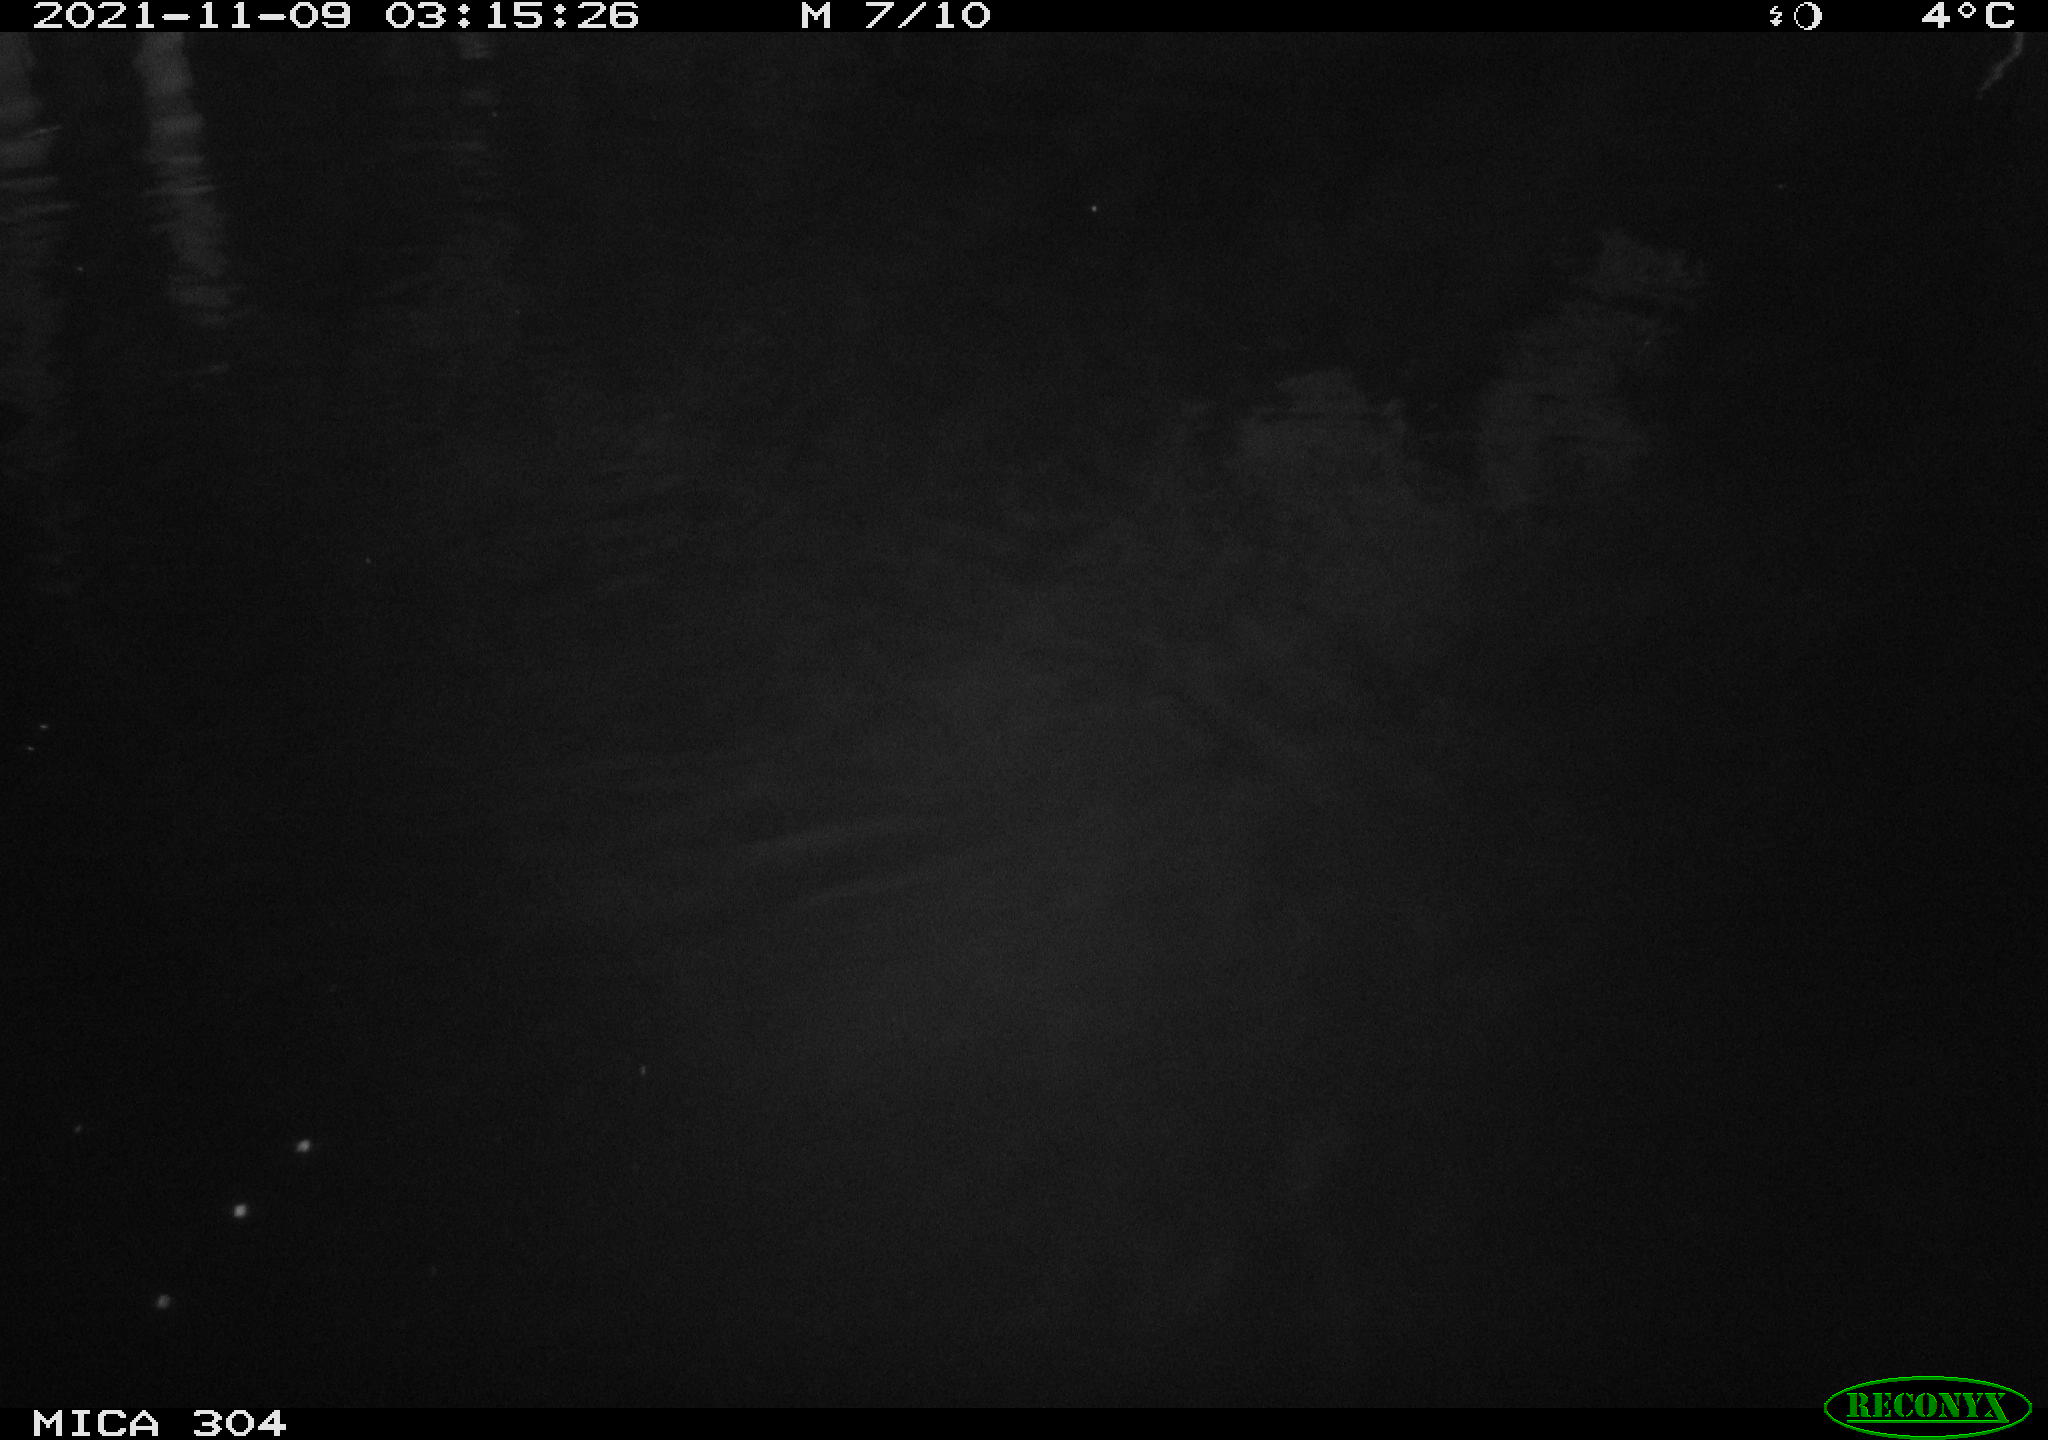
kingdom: Animalia
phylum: Chordata
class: Mammalia
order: Rodentia
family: Muridae
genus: Rattus
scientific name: Rattus norvegicus
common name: Brown rat
